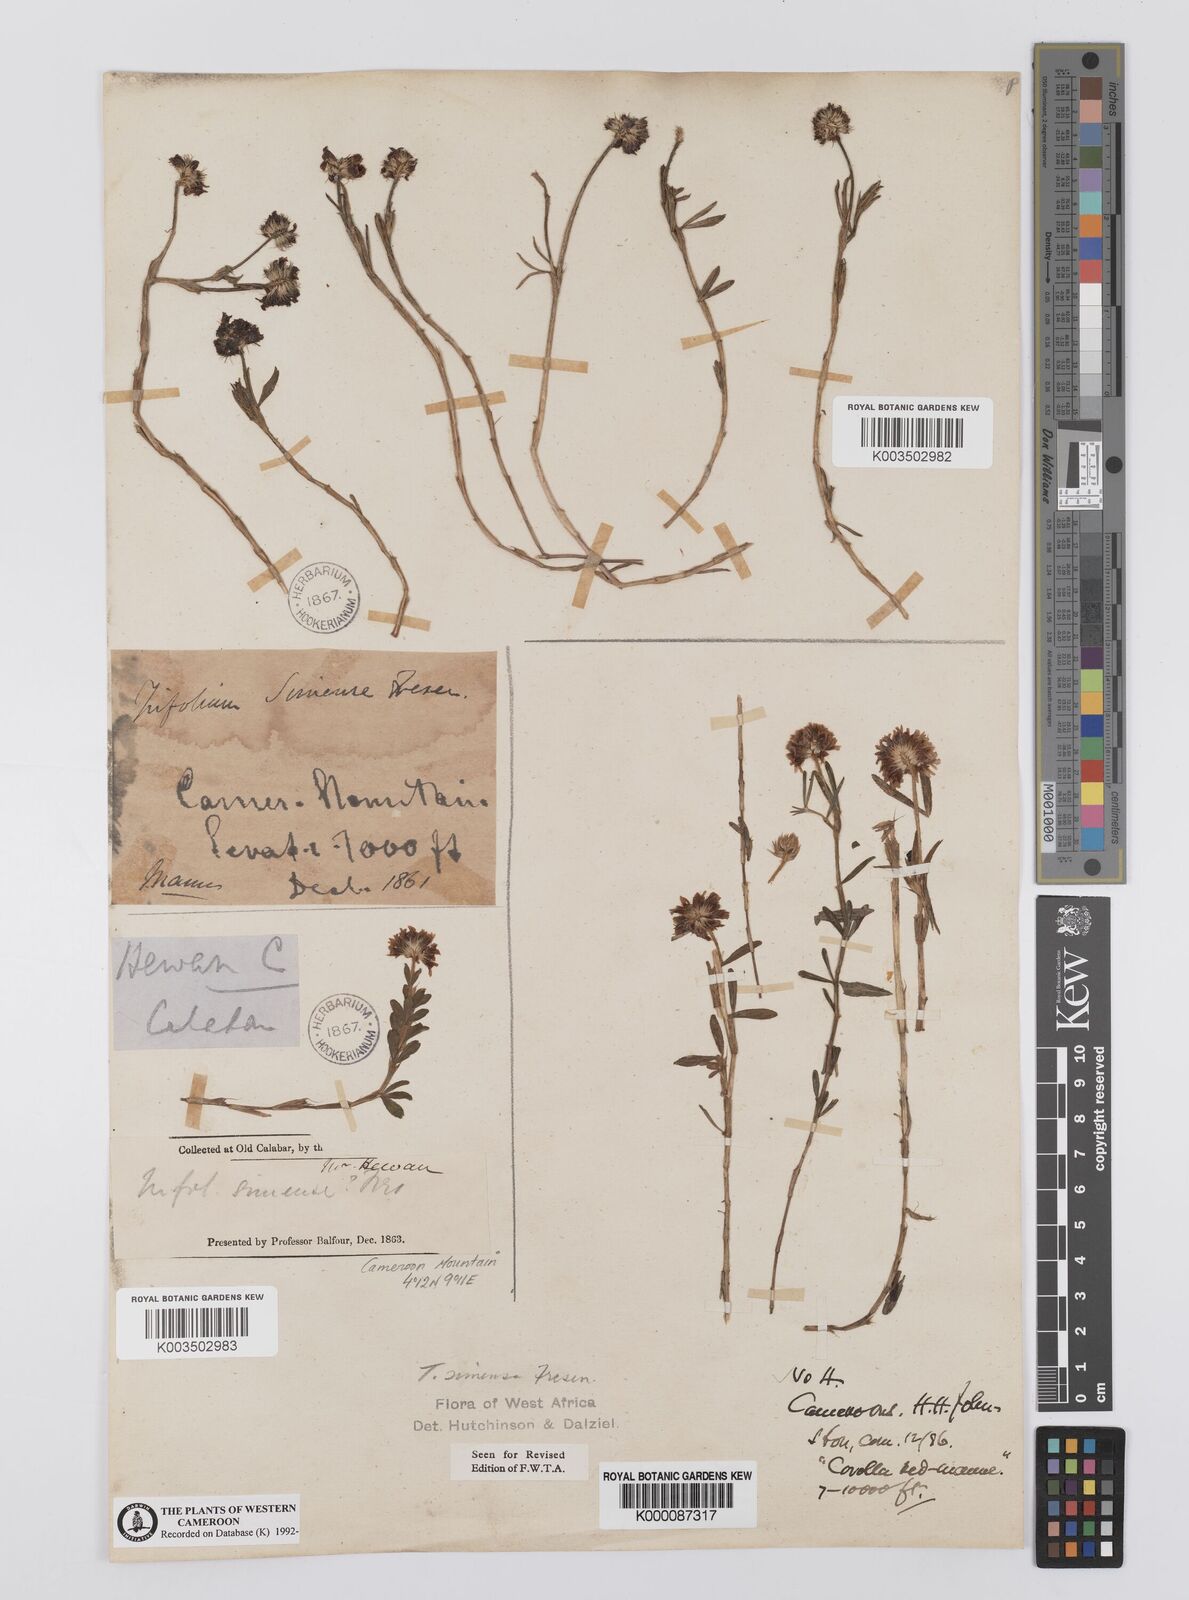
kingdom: Plantae
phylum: Tracheophyta
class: Magnoliopsida
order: Fabales
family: Fabaceae
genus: Trifolium
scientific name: Trifolium simense
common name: Simen clover
